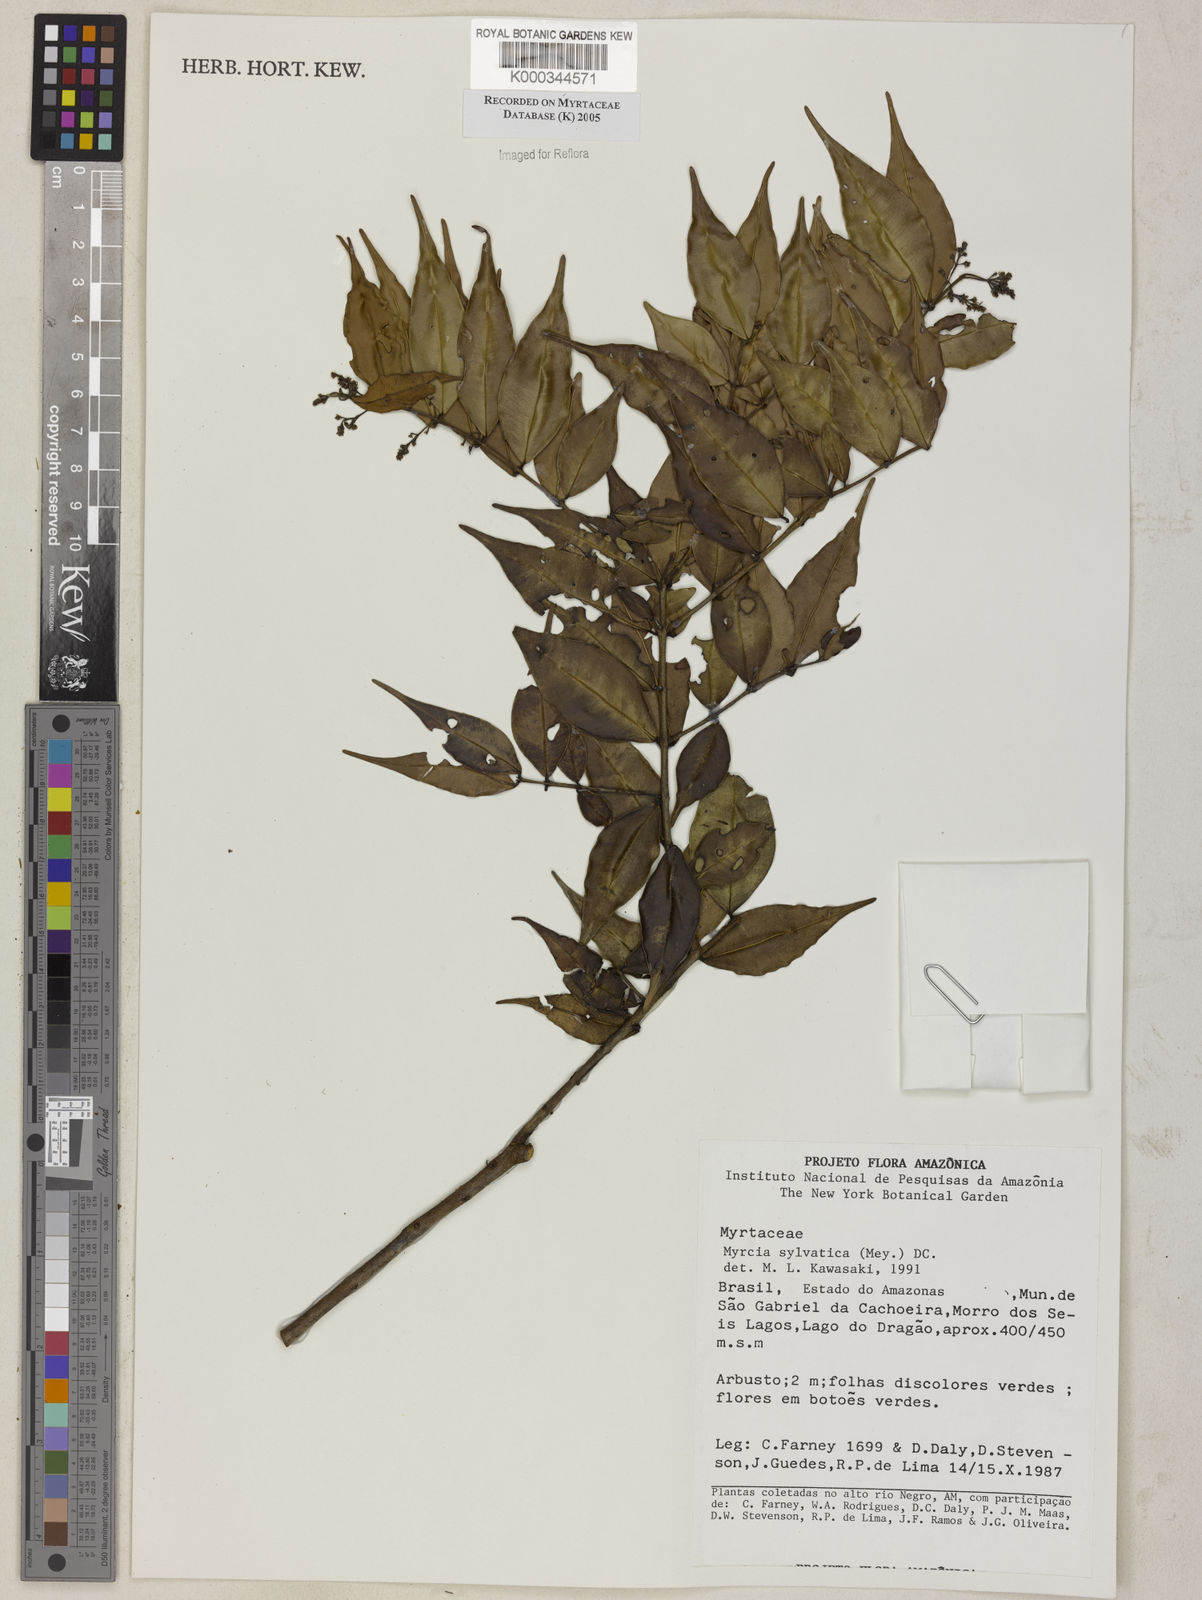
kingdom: Plantae
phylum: Tracheophyta
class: Magnoliopsida
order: Myrtales
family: Myrtaceae
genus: Myrcia
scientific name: Myrcia sylvatica
